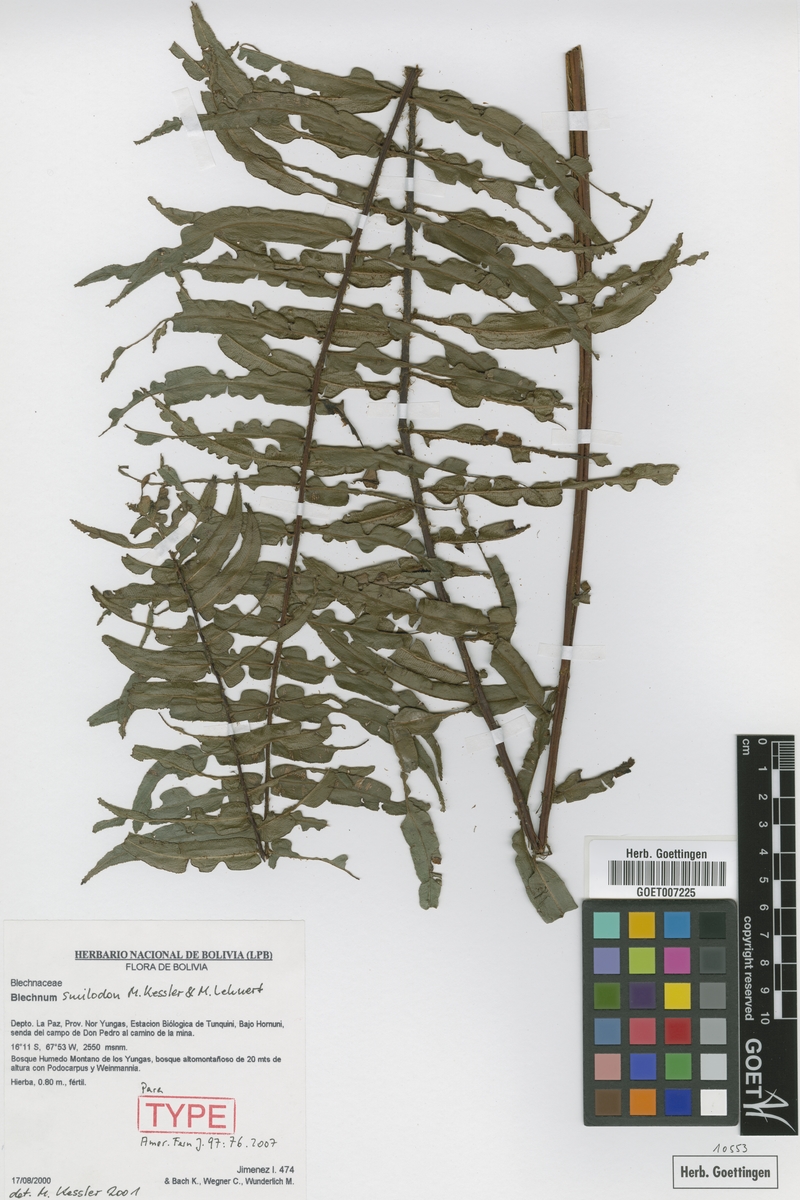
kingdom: Plantae
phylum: Tracheophyta
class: Polypodiopsida
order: Polypodiales
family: Blechnaceae
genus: Parablechnum
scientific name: Parablechnum smilodon
